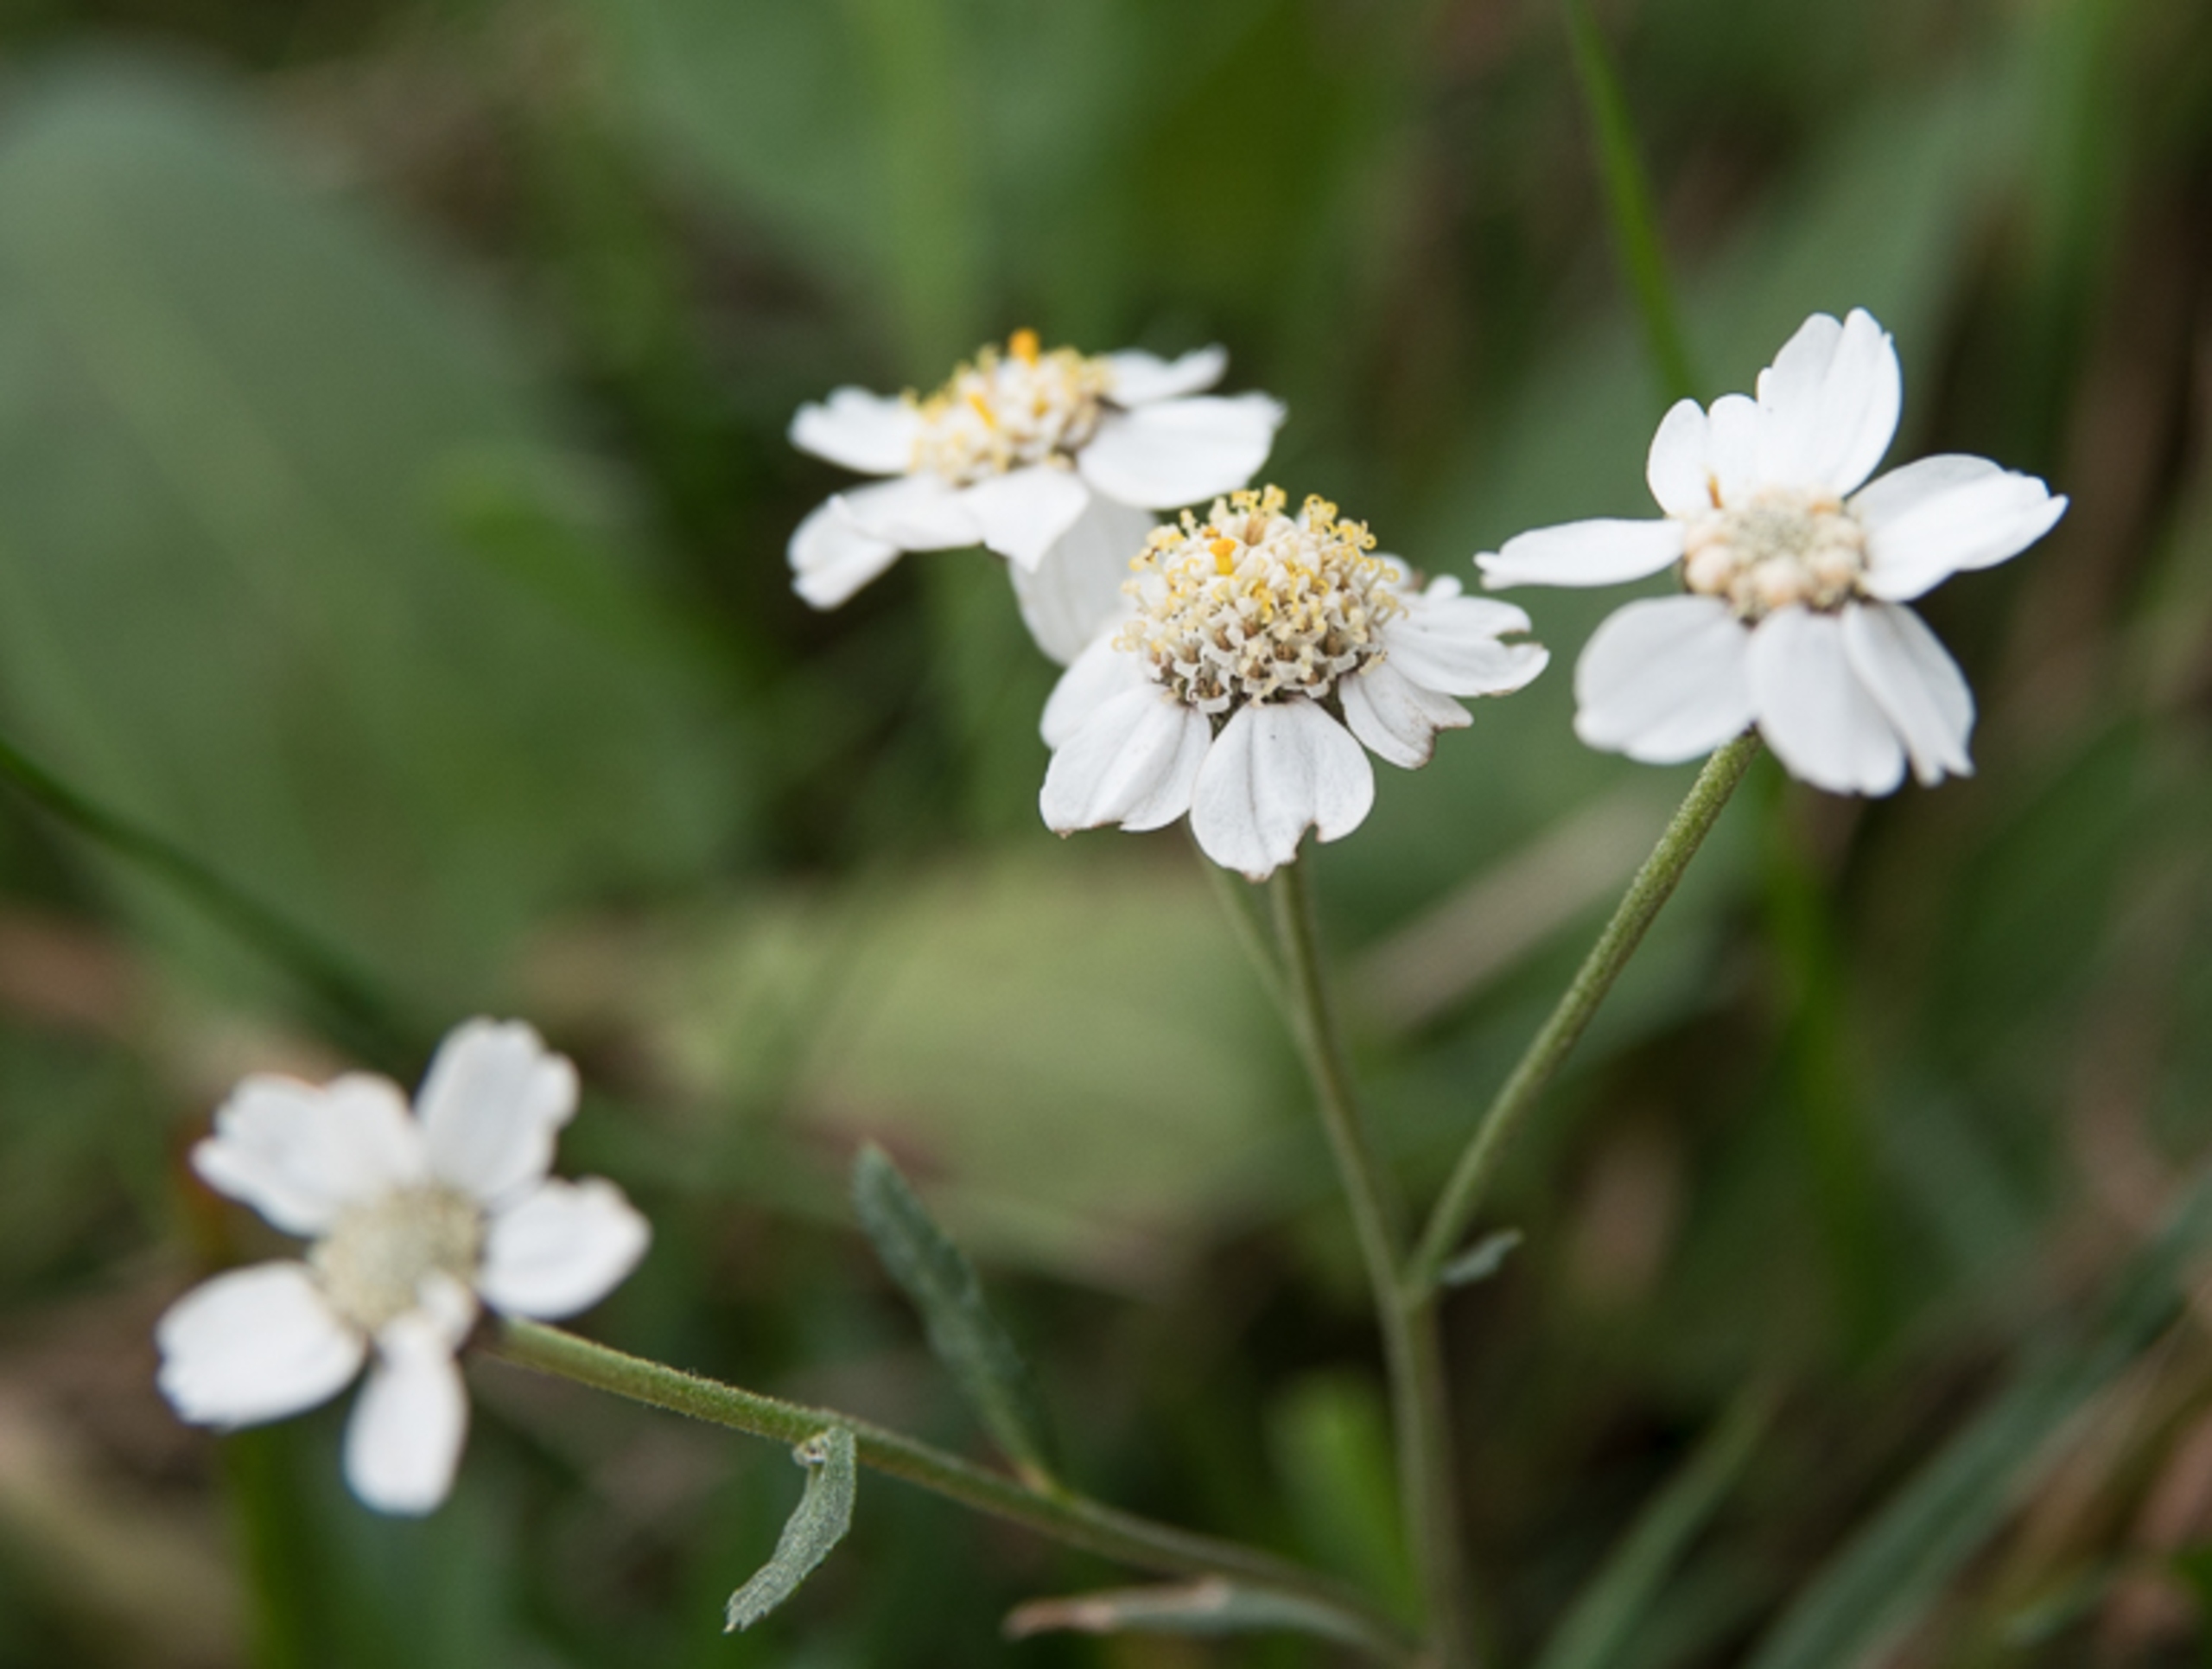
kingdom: Plantae
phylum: Tracheophyta
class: Magnoliopsida
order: Asterales
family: Asteraceae
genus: Achillea
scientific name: Achillea ptarmica
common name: Nyse-røllike
